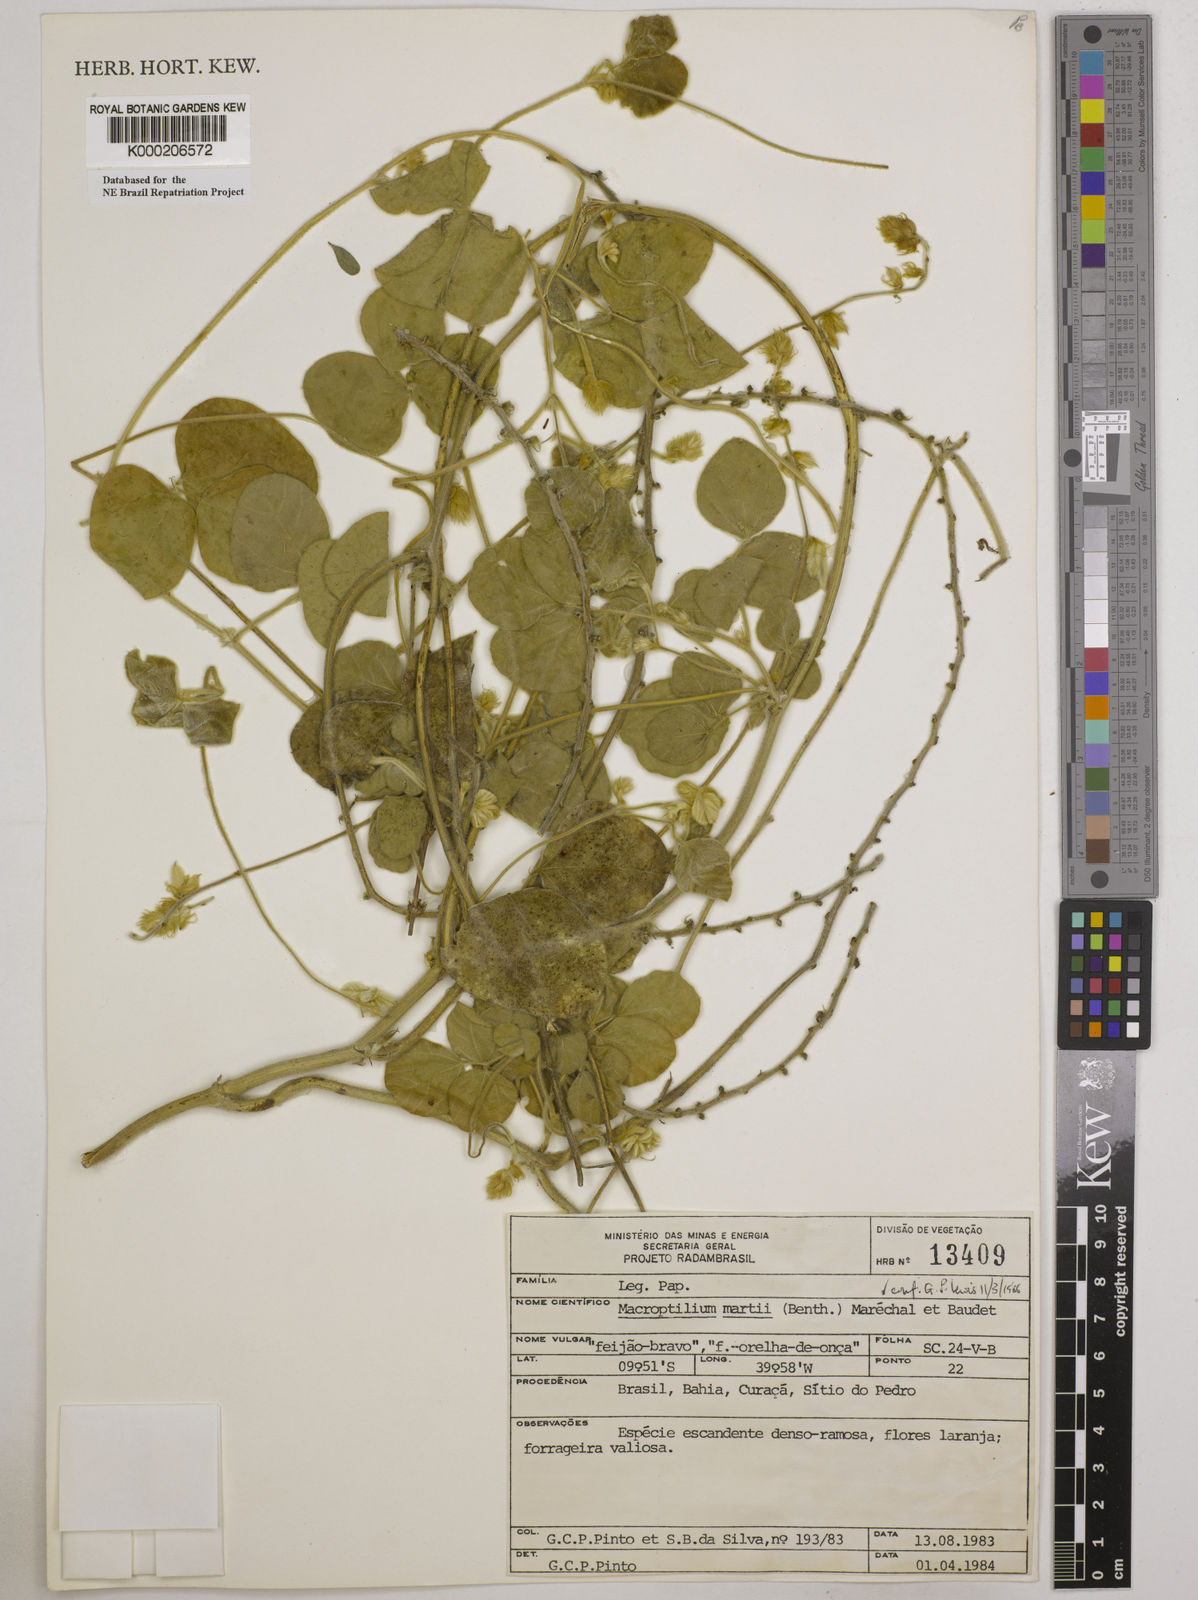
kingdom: Plantae
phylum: Tracheophyta
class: Magnoliopsida
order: Fabales
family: Fabaceae
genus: Macroptilium
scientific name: Macroptilium
